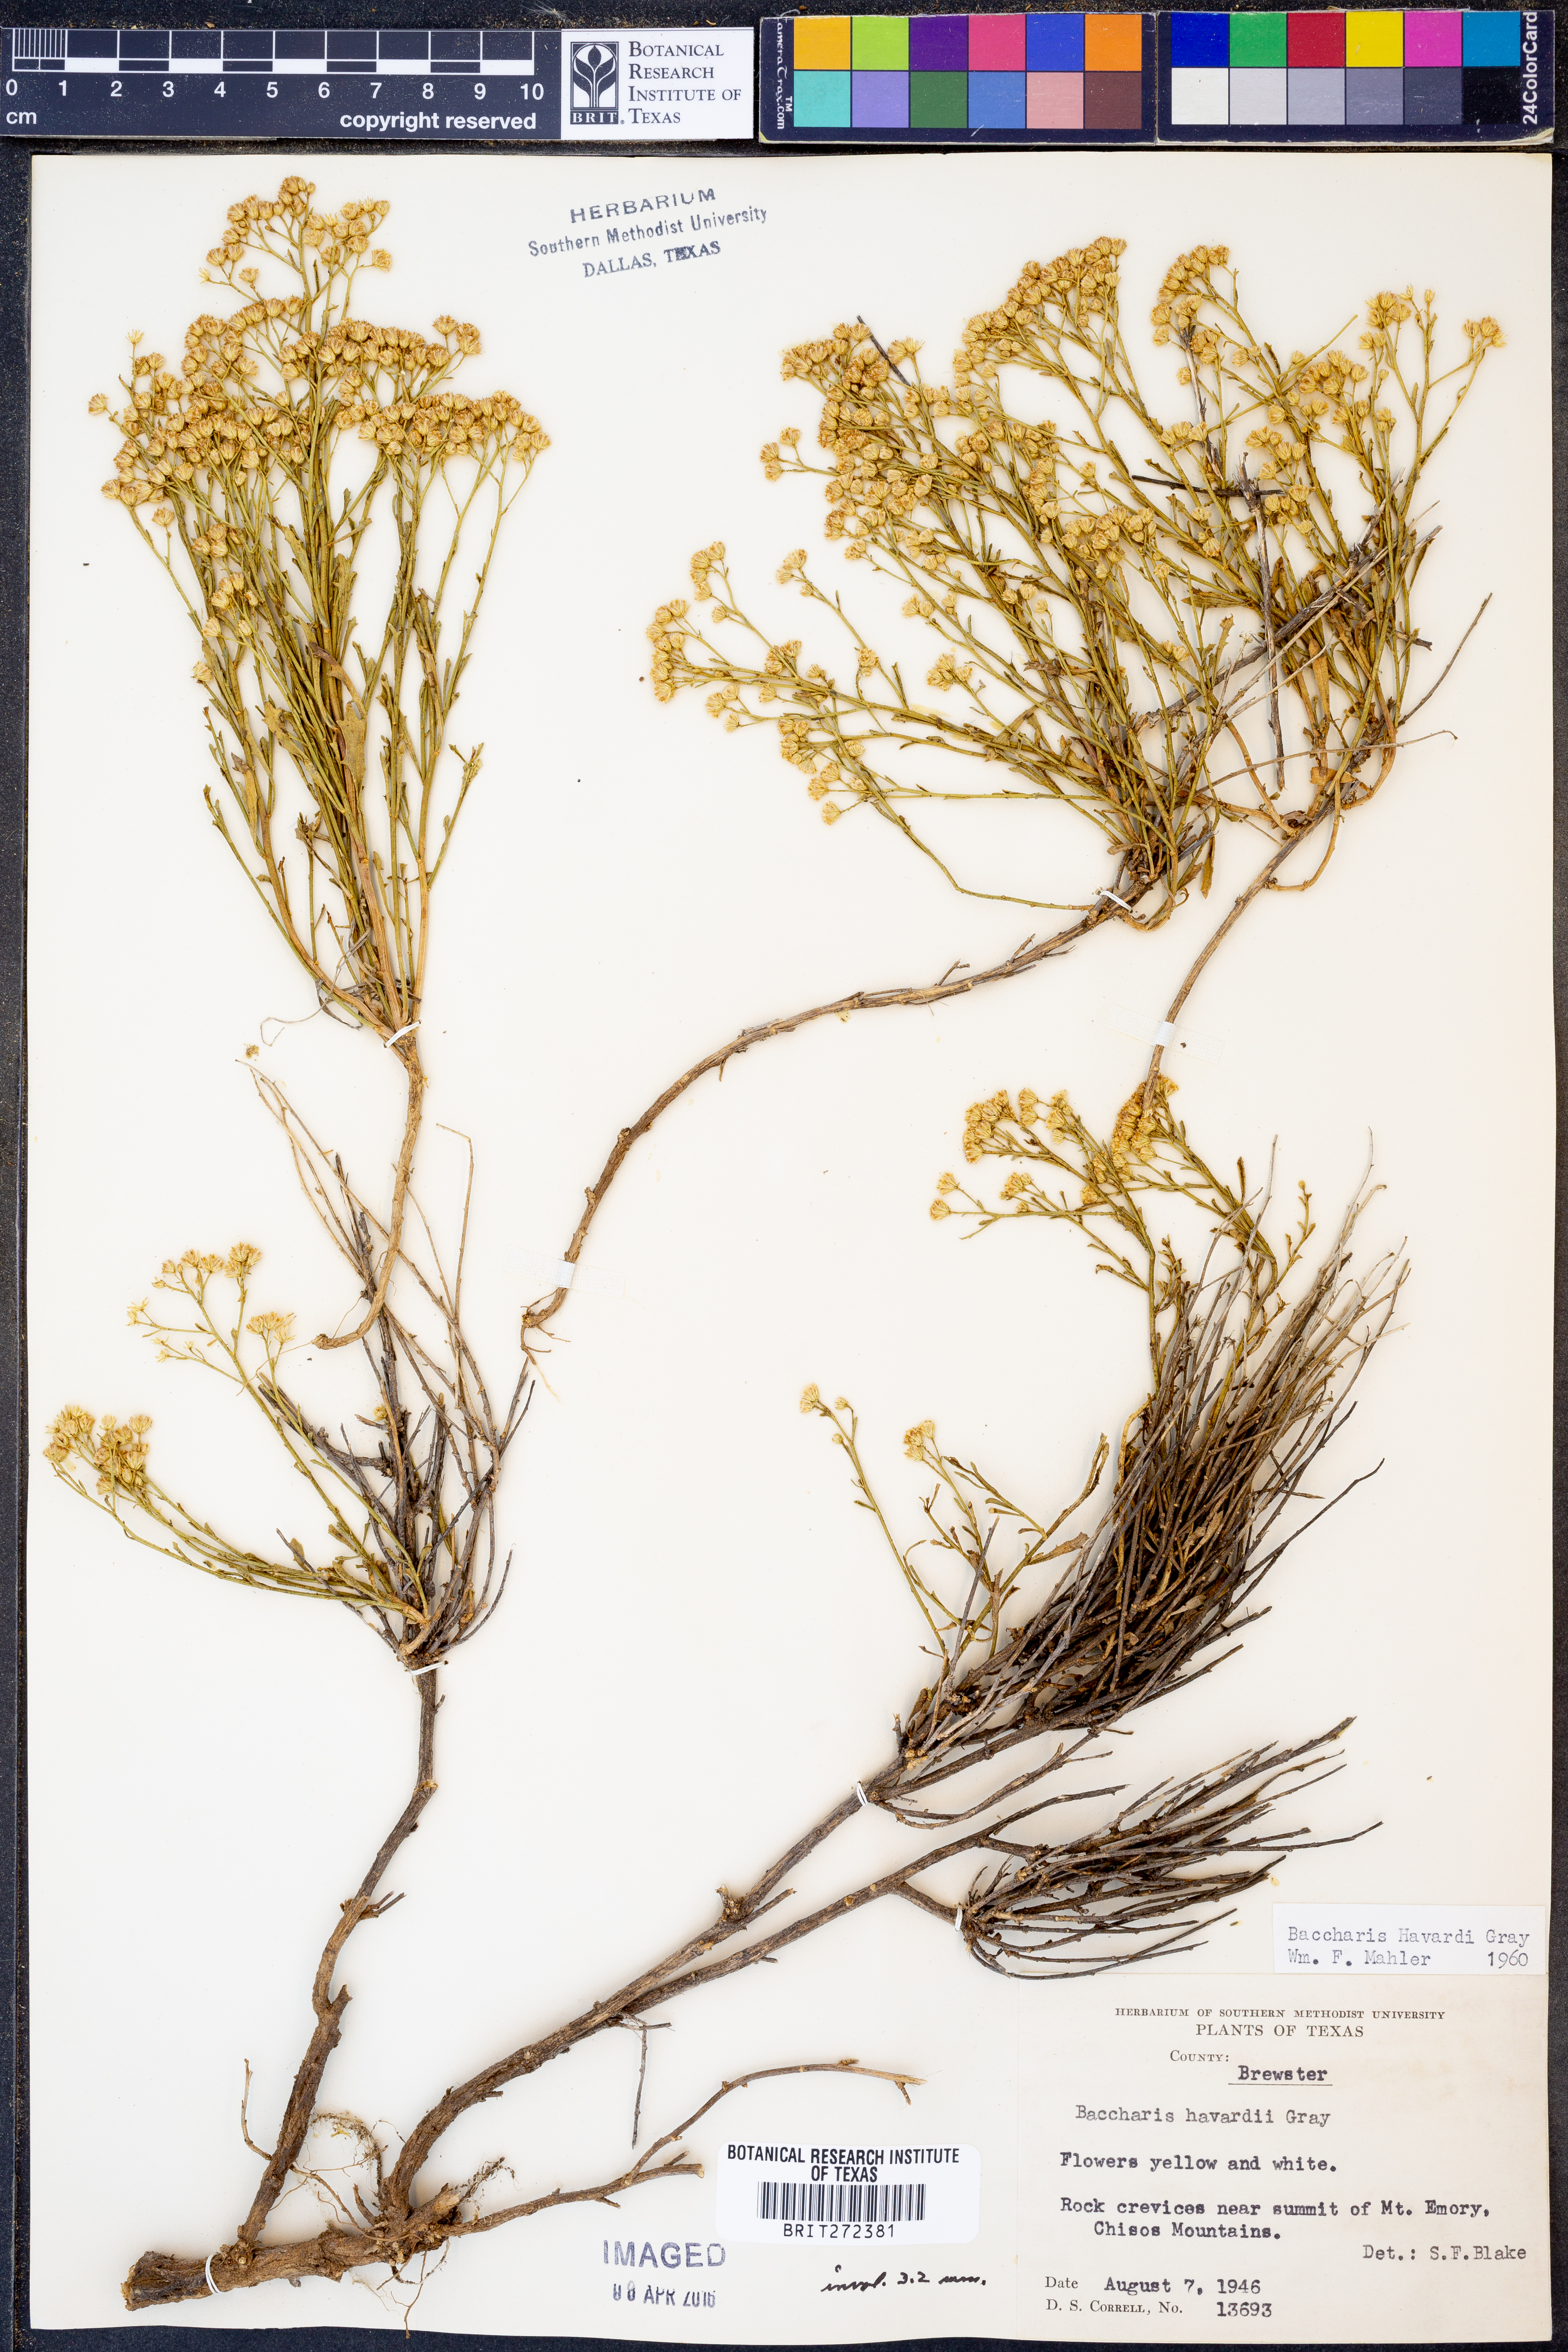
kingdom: Plantae
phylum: Tracheophyta
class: Magnoliopsida
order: Asterales
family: Asteraceae
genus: Baccharis
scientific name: Baccharis havardii
